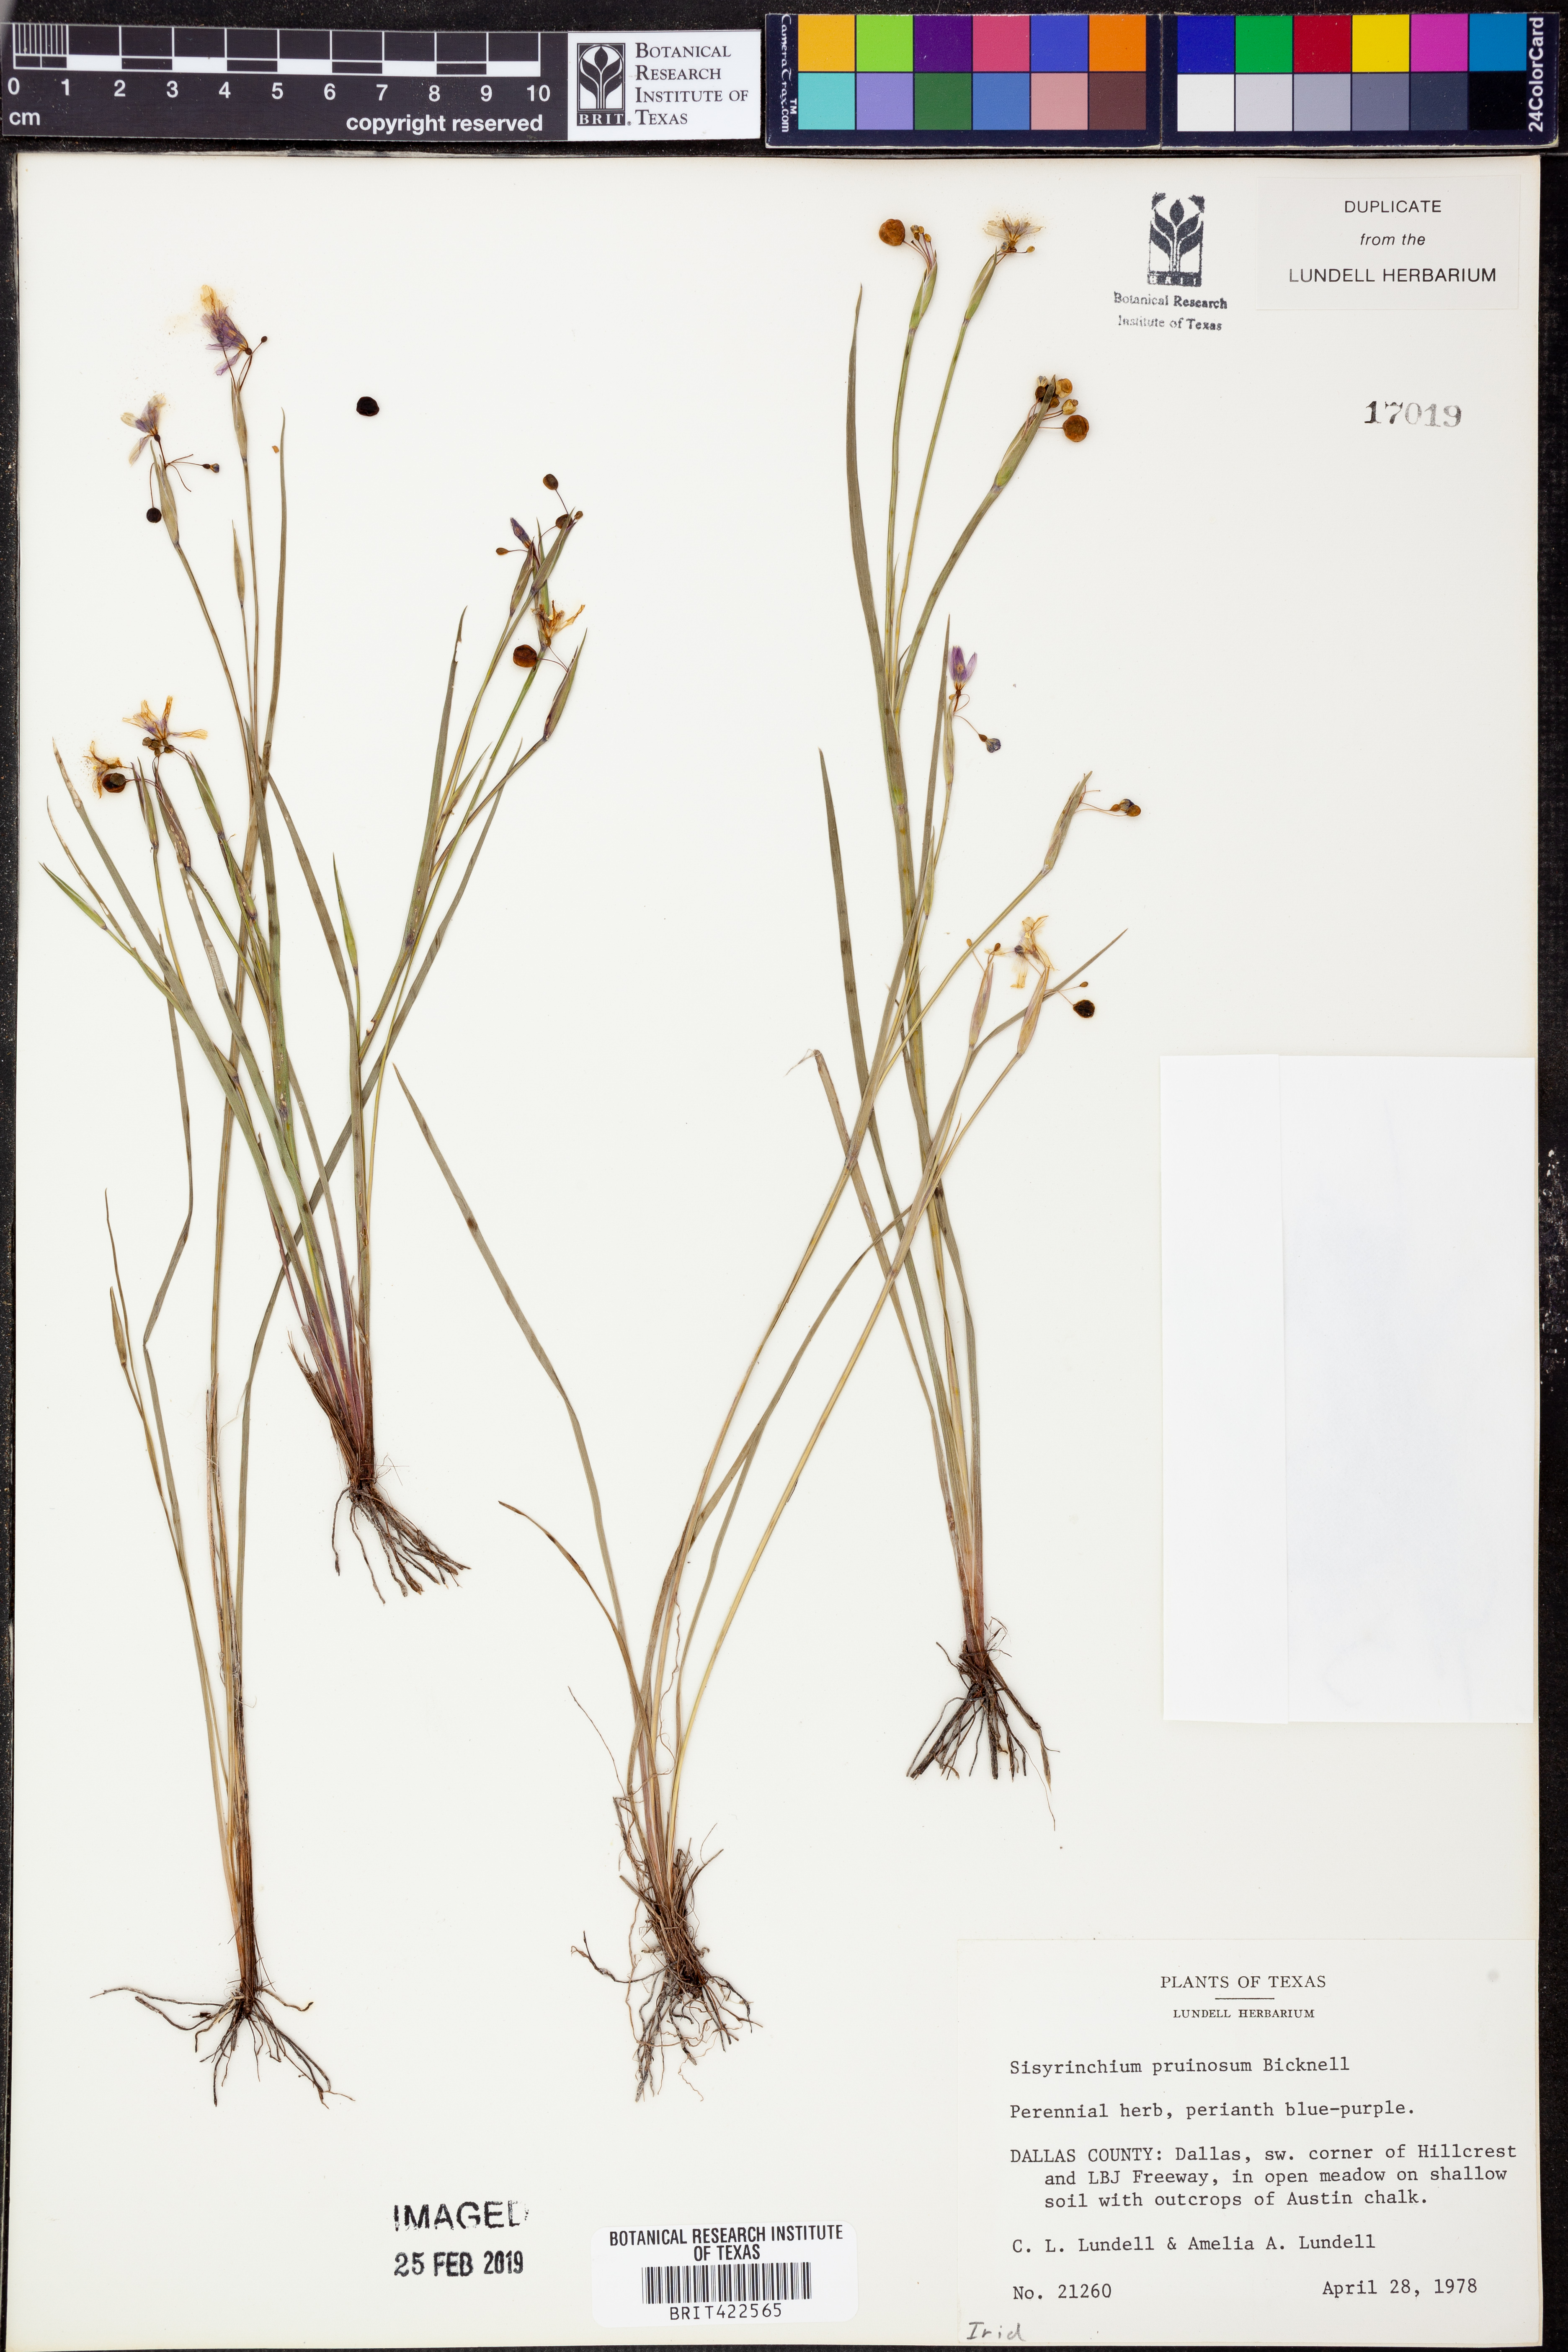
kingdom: Plantae
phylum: Tracheophyta
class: Liliopsida
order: Asparagales
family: Iridaceae
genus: Sisyrinchium
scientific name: Sisyrinchium pruinosum
